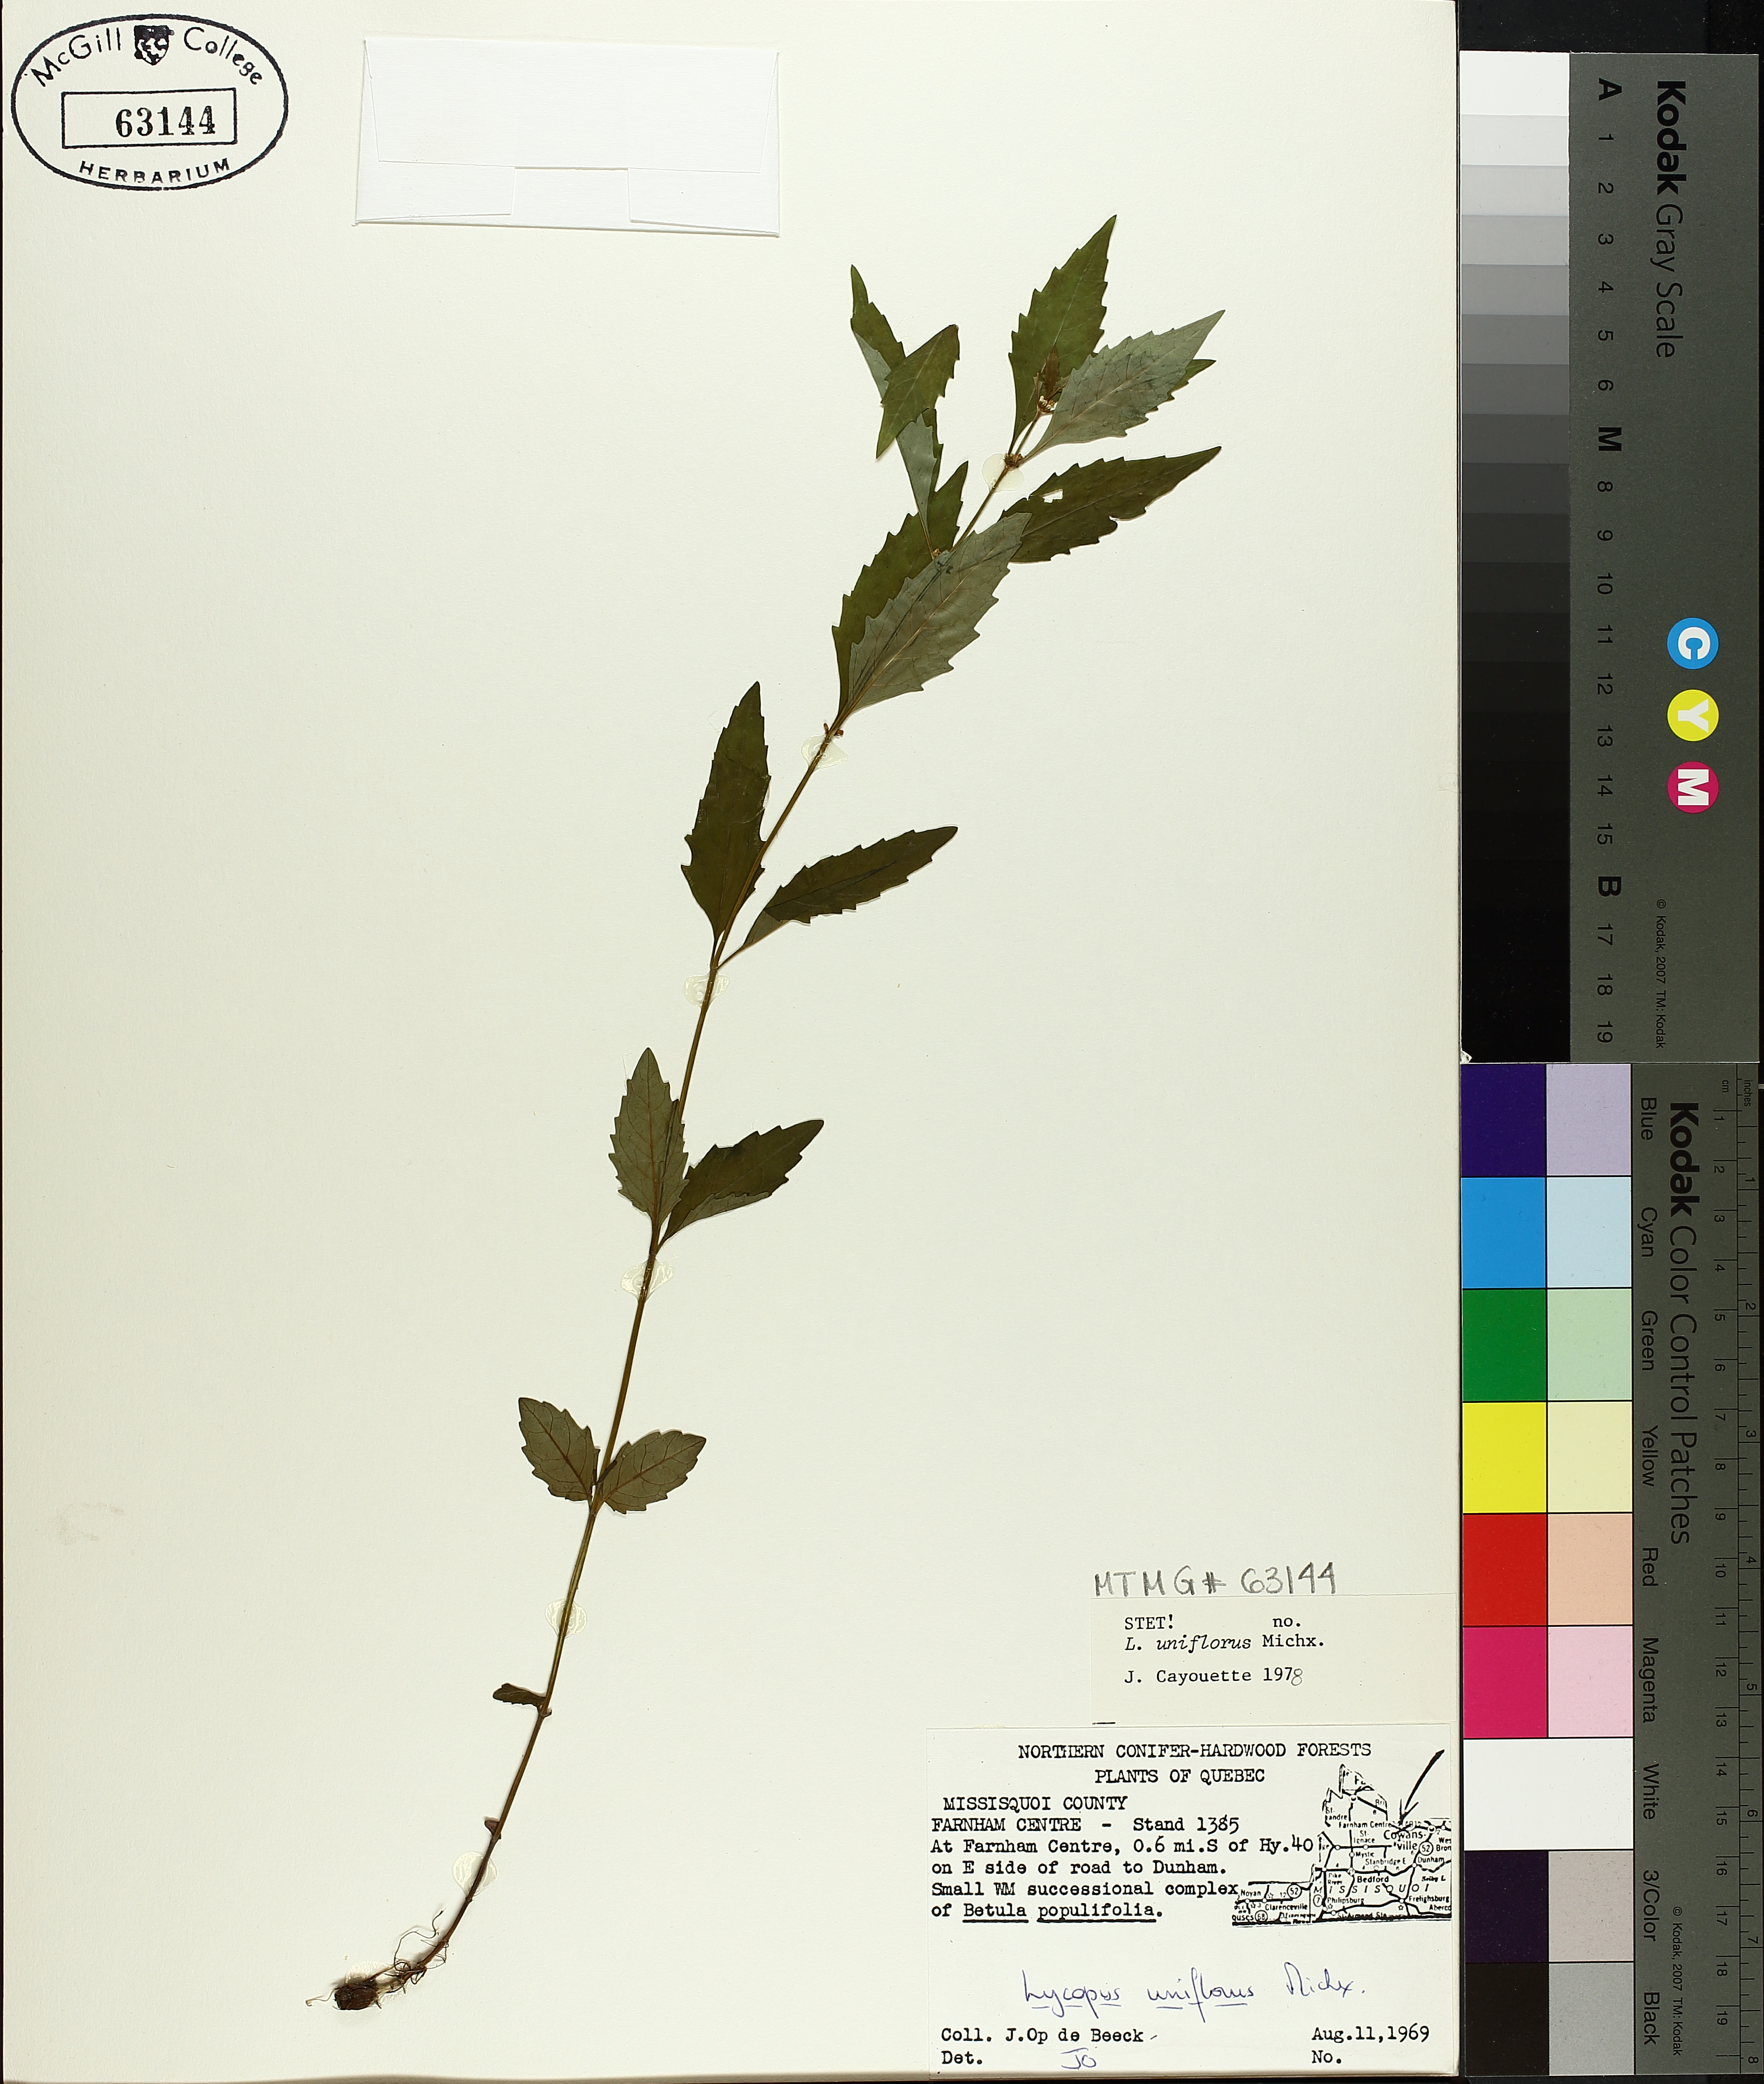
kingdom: Plantae
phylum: Tracheophyta
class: Magnoliopsida
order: Lamiales
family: Lamiaceae
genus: Lycopus
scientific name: Lycopus uniflorus
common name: Northern bugleweed
